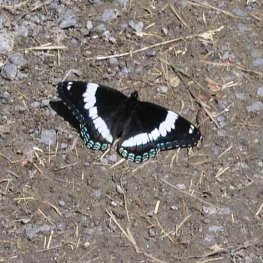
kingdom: Animalia
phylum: Arthropoda
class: Insecta
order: Lepidoptera
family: Nymphalidae
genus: Limenitis
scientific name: Limenitis arthemis
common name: Red-spotted Admiral
